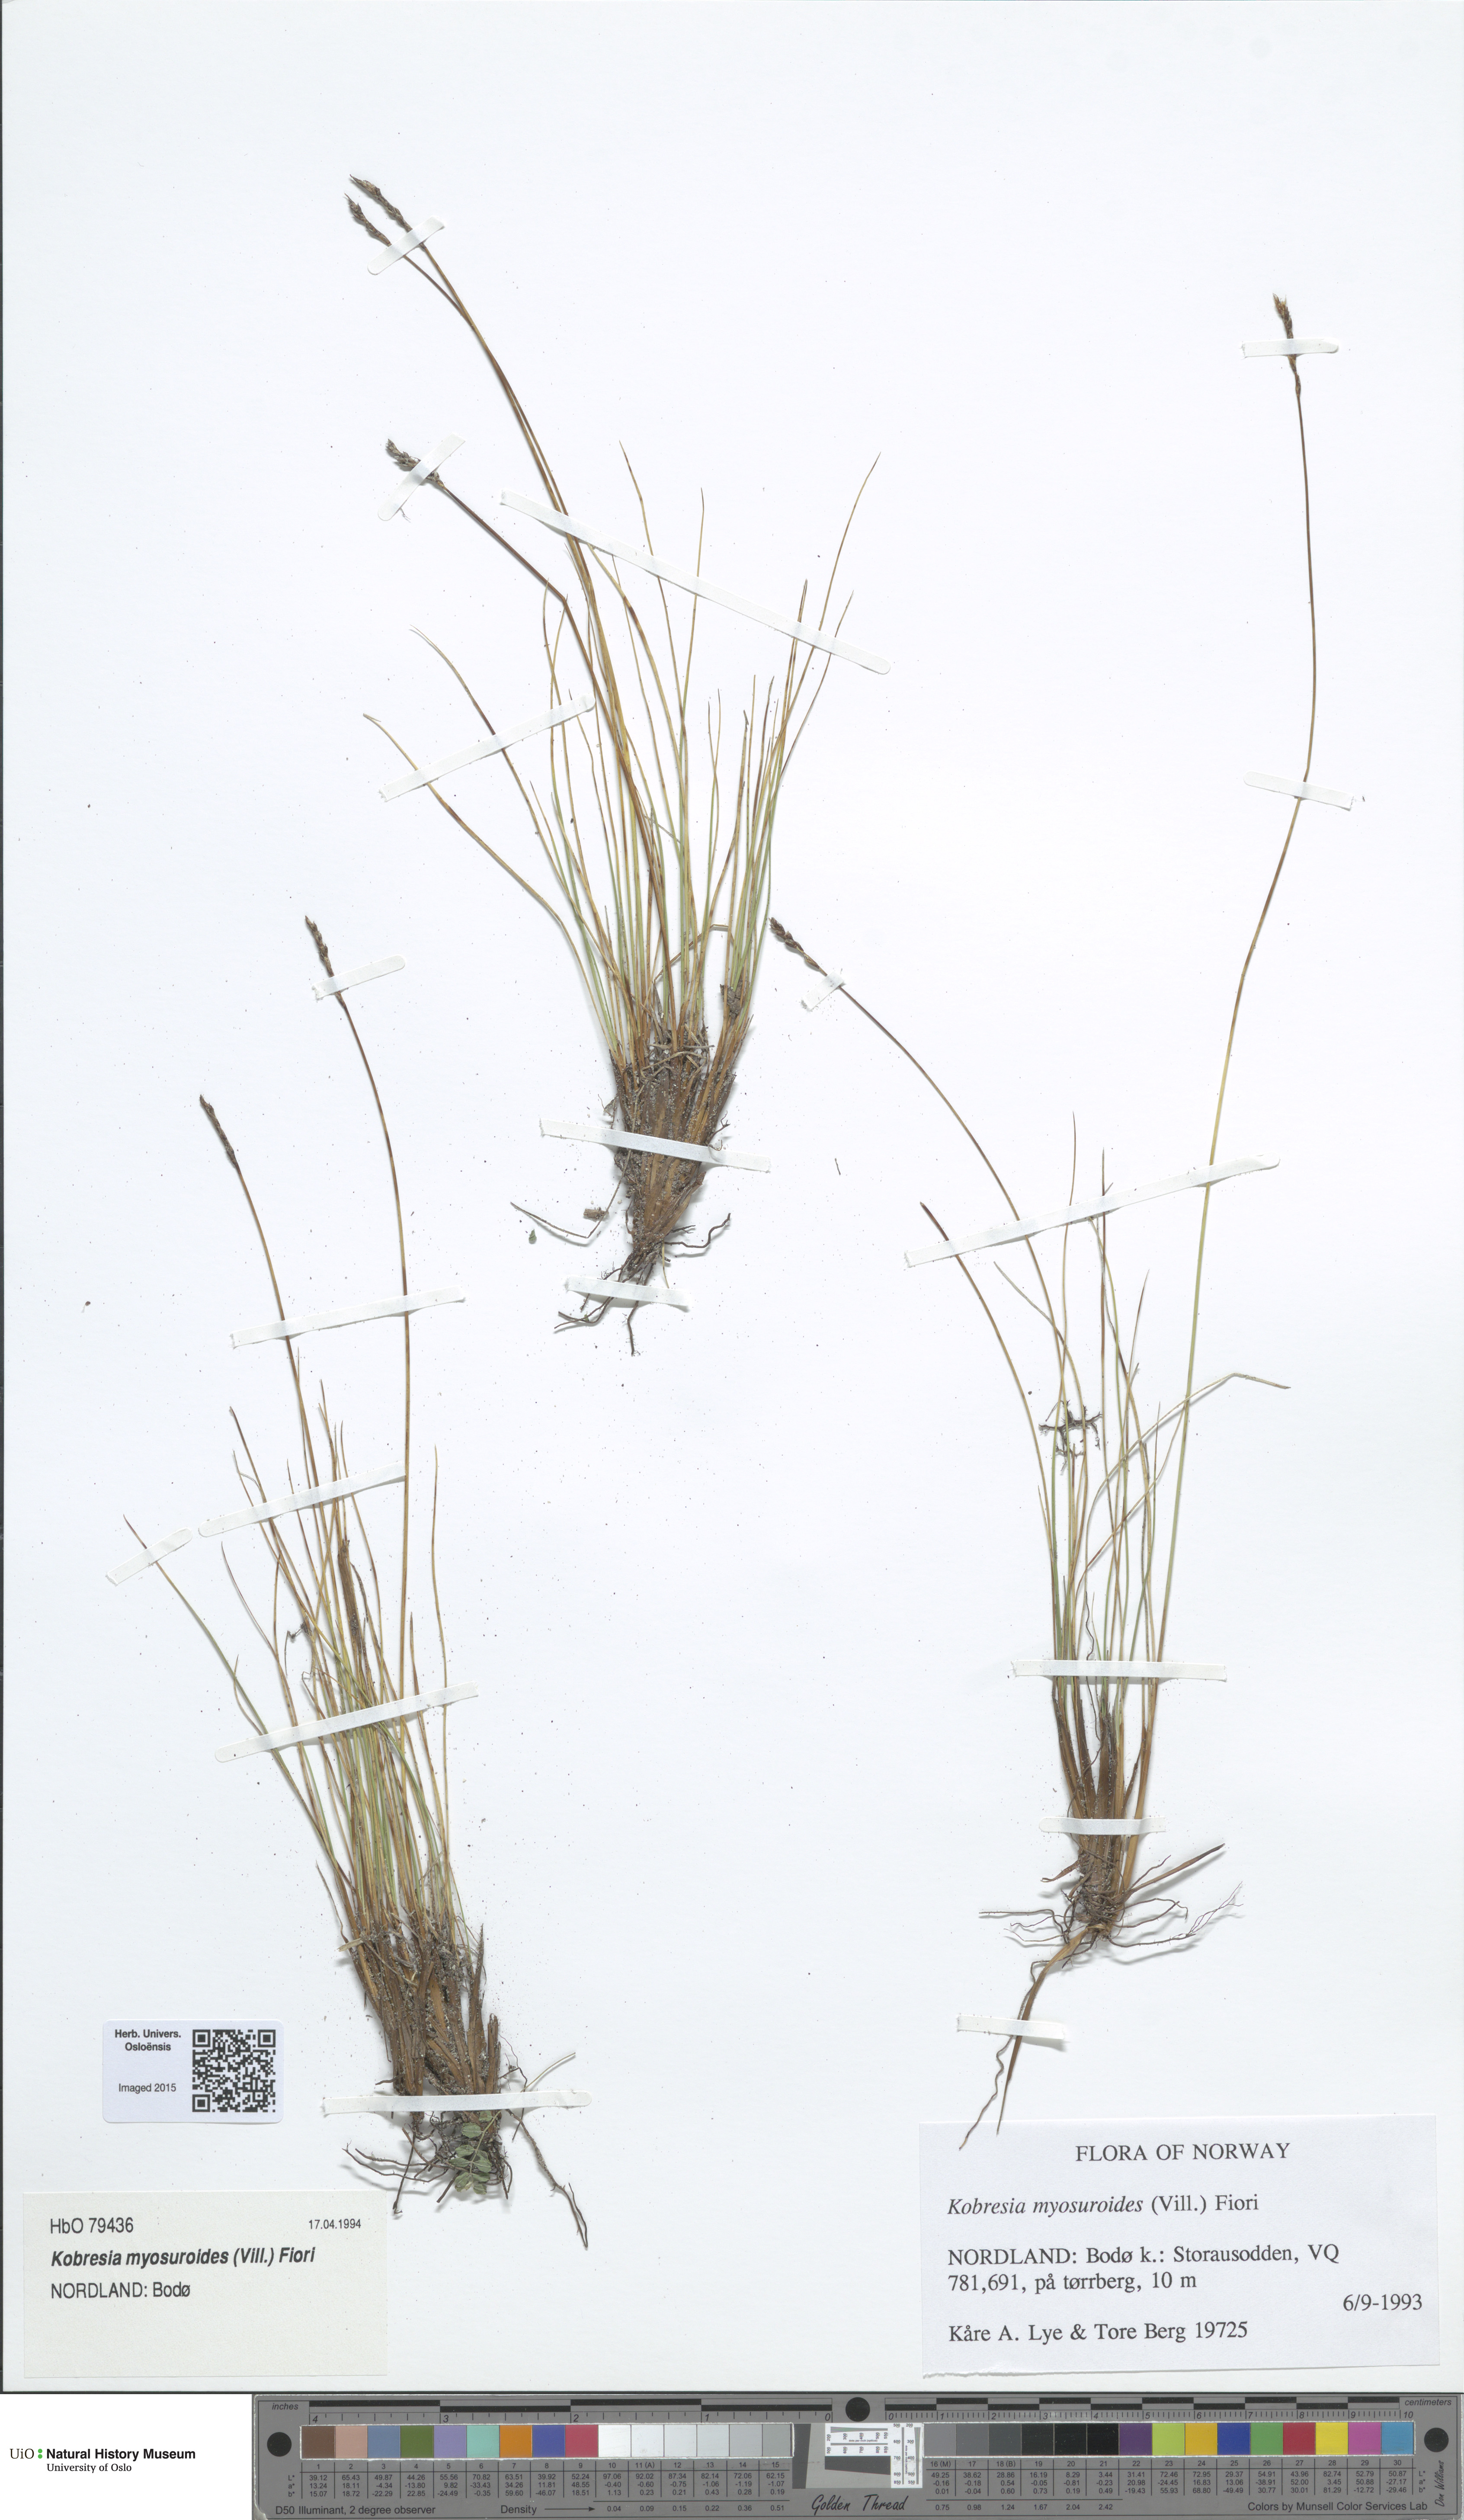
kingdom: Plantae
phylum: Tracheophyta
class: Liliopsida
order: Poales
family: Cyperaceae
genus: Carex
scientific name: Carex myosuroides
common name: Bellard's bog sedge
